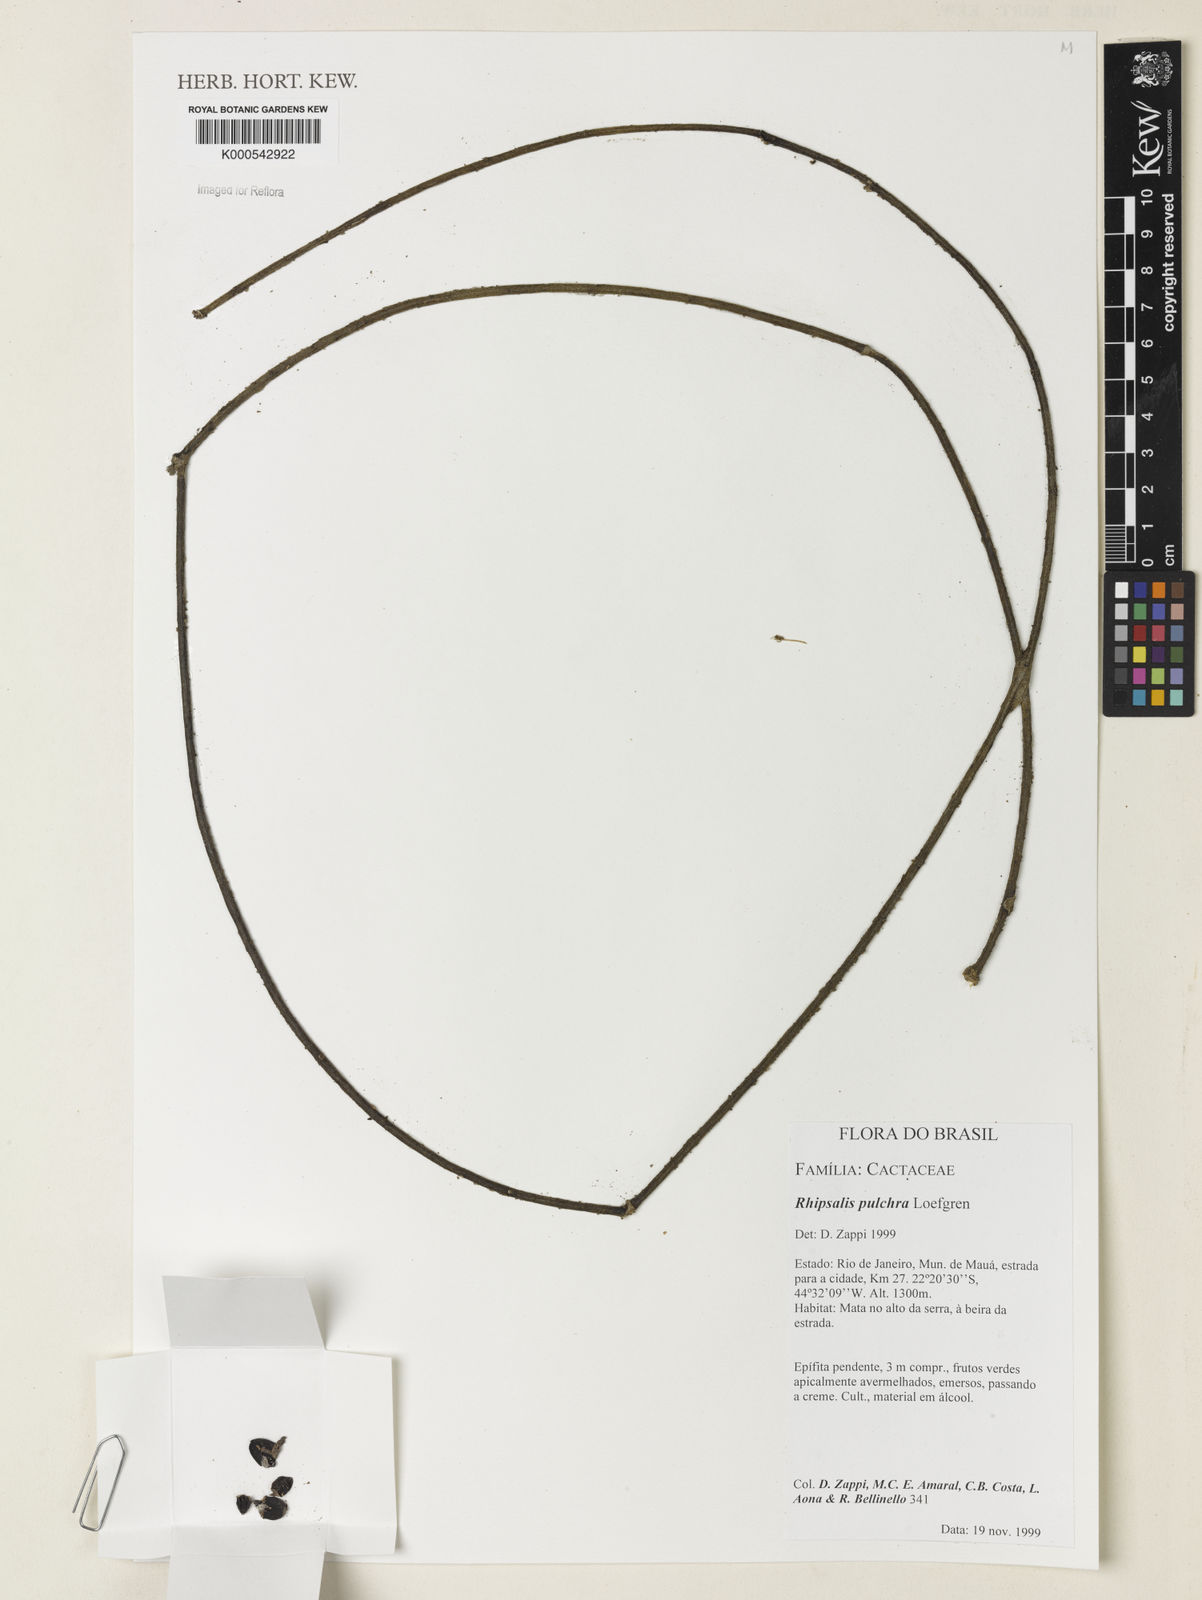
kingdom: Plantae
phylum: Tracheophyta
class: Magnoliopsida
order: Caryophyllales
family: Cactaceae
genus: Rhipsalis
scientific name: Rhipsalis pulchra
